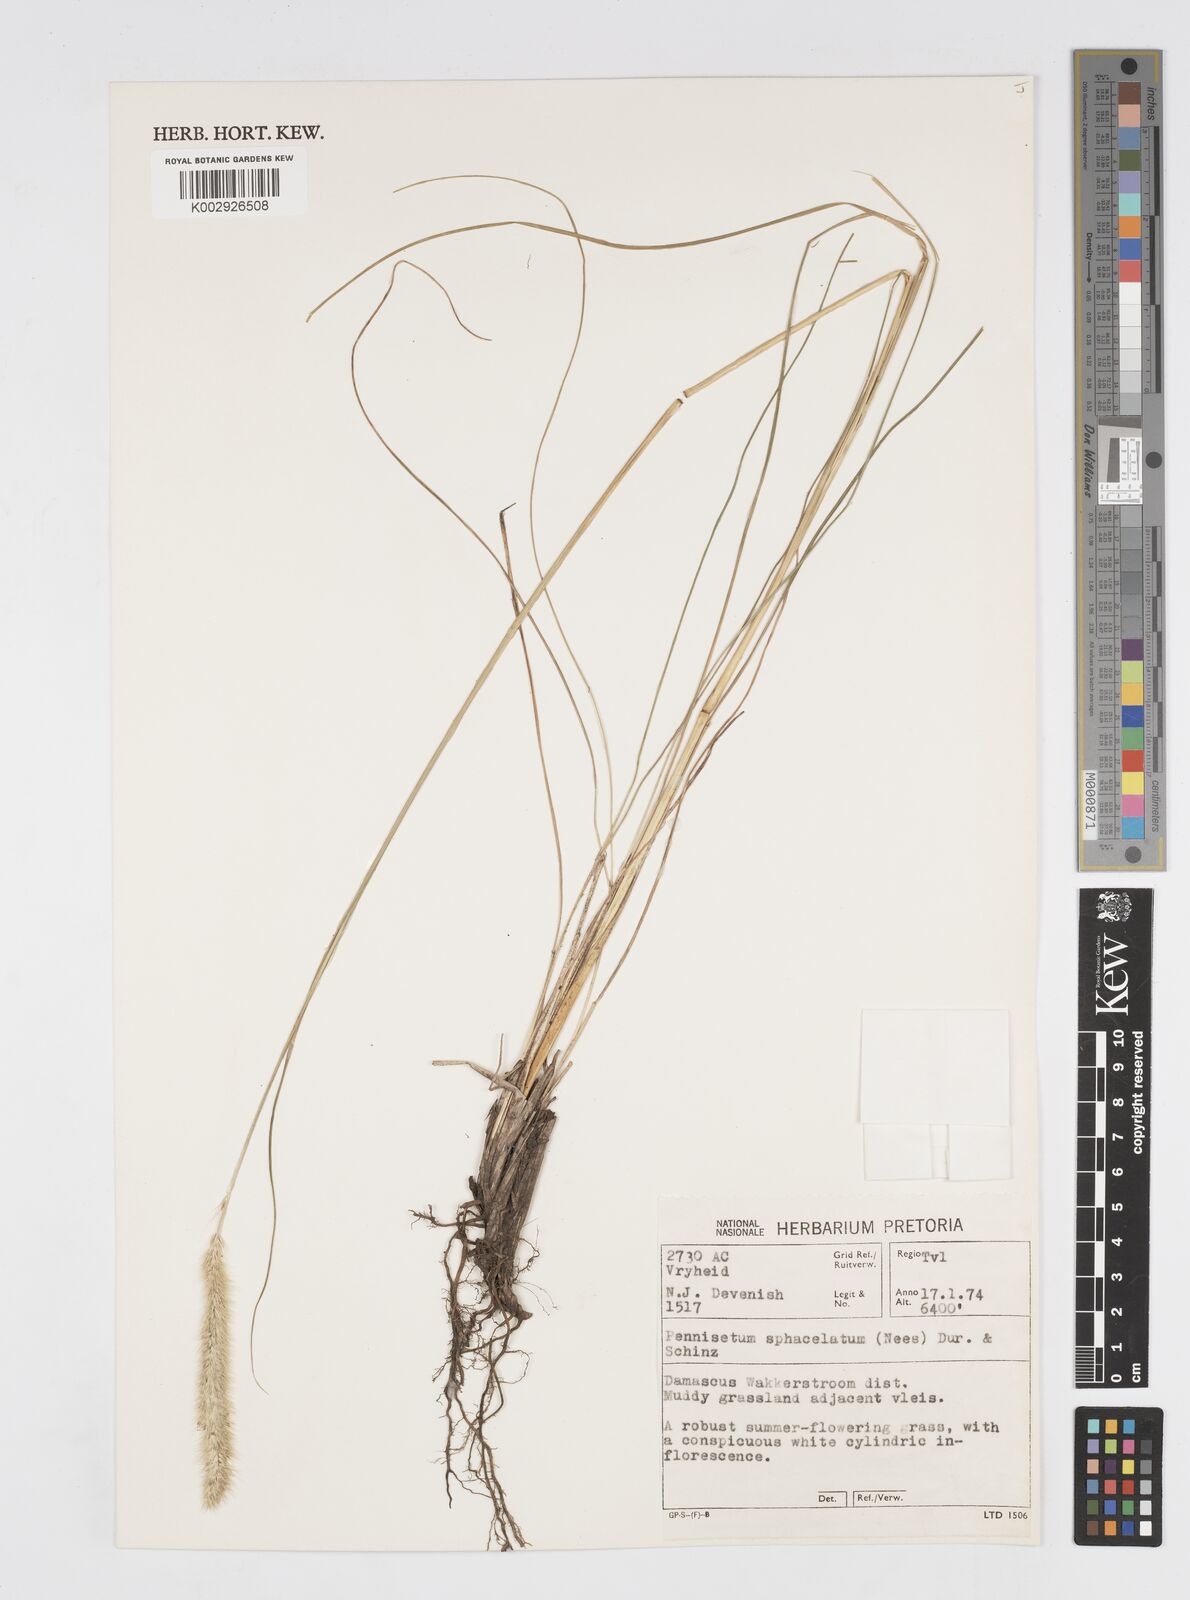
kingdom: Plantae
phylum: Tracheophyta
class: Liliopsida
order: Poales
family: Poaceae
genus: Cenchrus
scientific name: Cenchrus sphacelatus
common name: Bulgras
